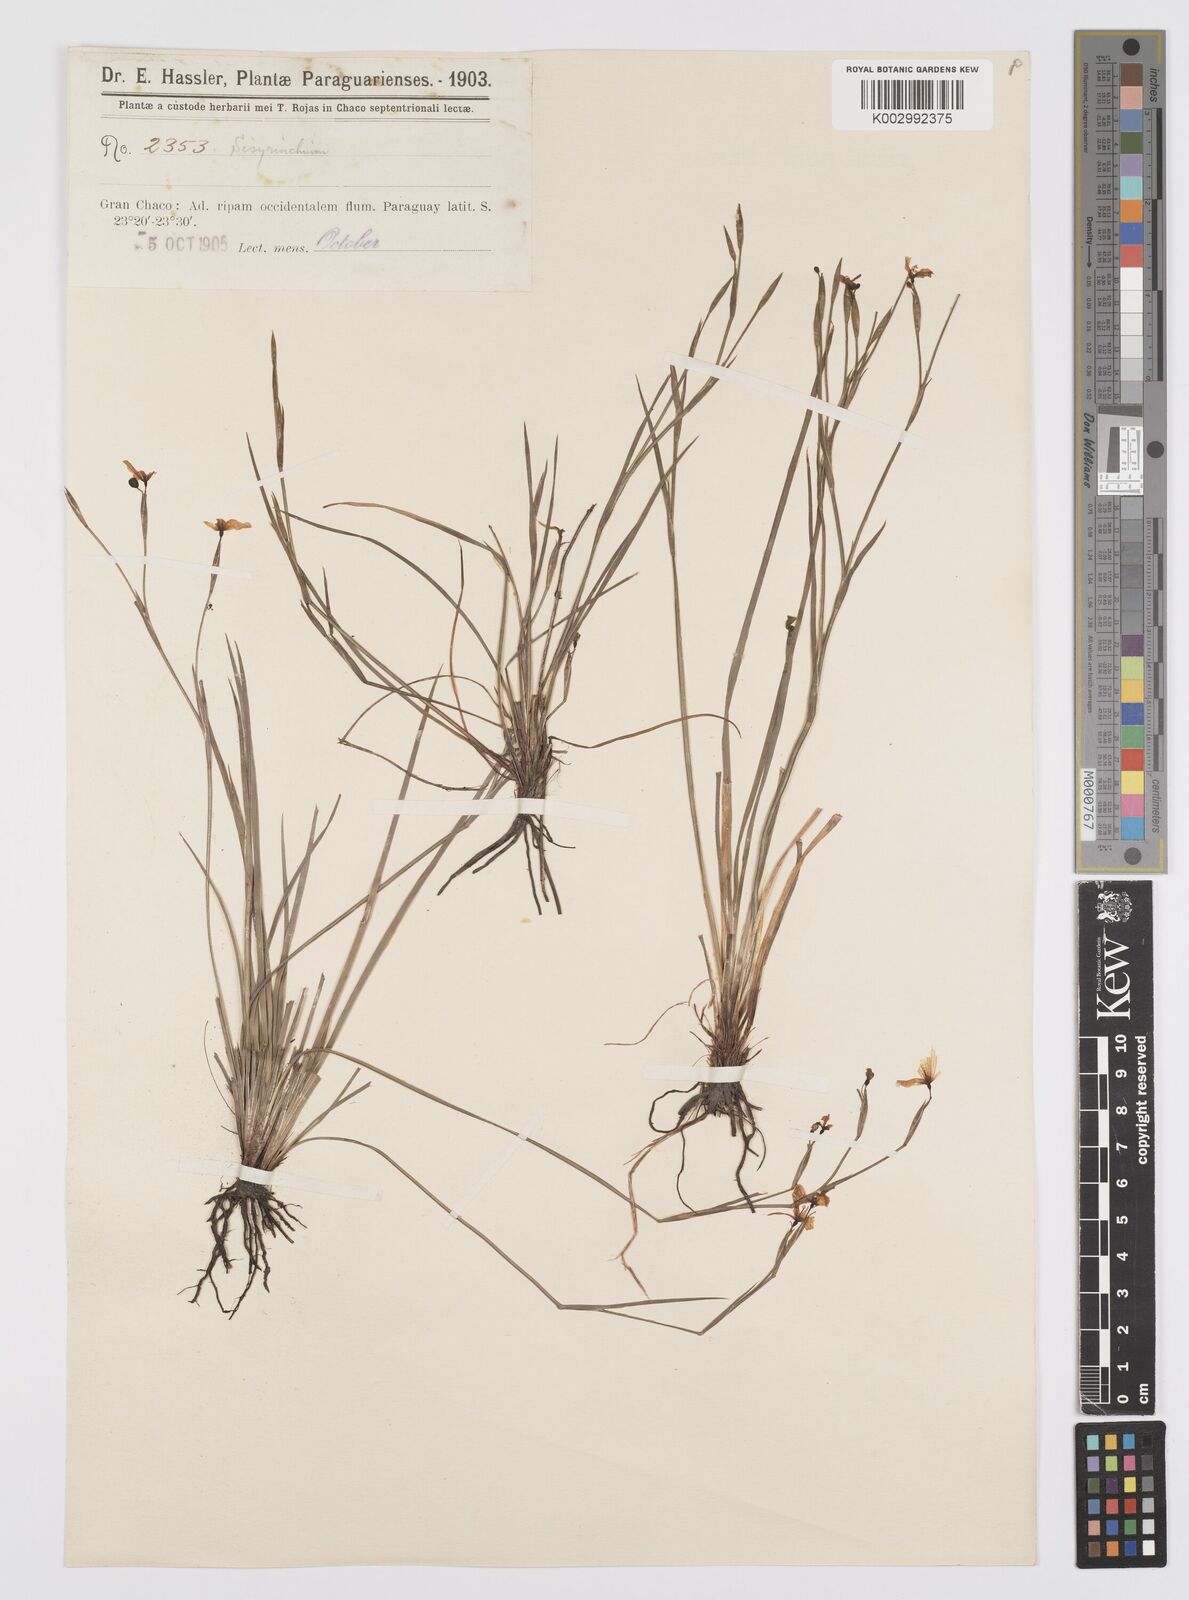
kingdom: Plantae
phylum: Tracheophyta
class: Liliopsida
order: Asparagales
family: Iridaceae
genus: Sisyrinchium
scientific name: Sisyrinchium pachyrhizum
